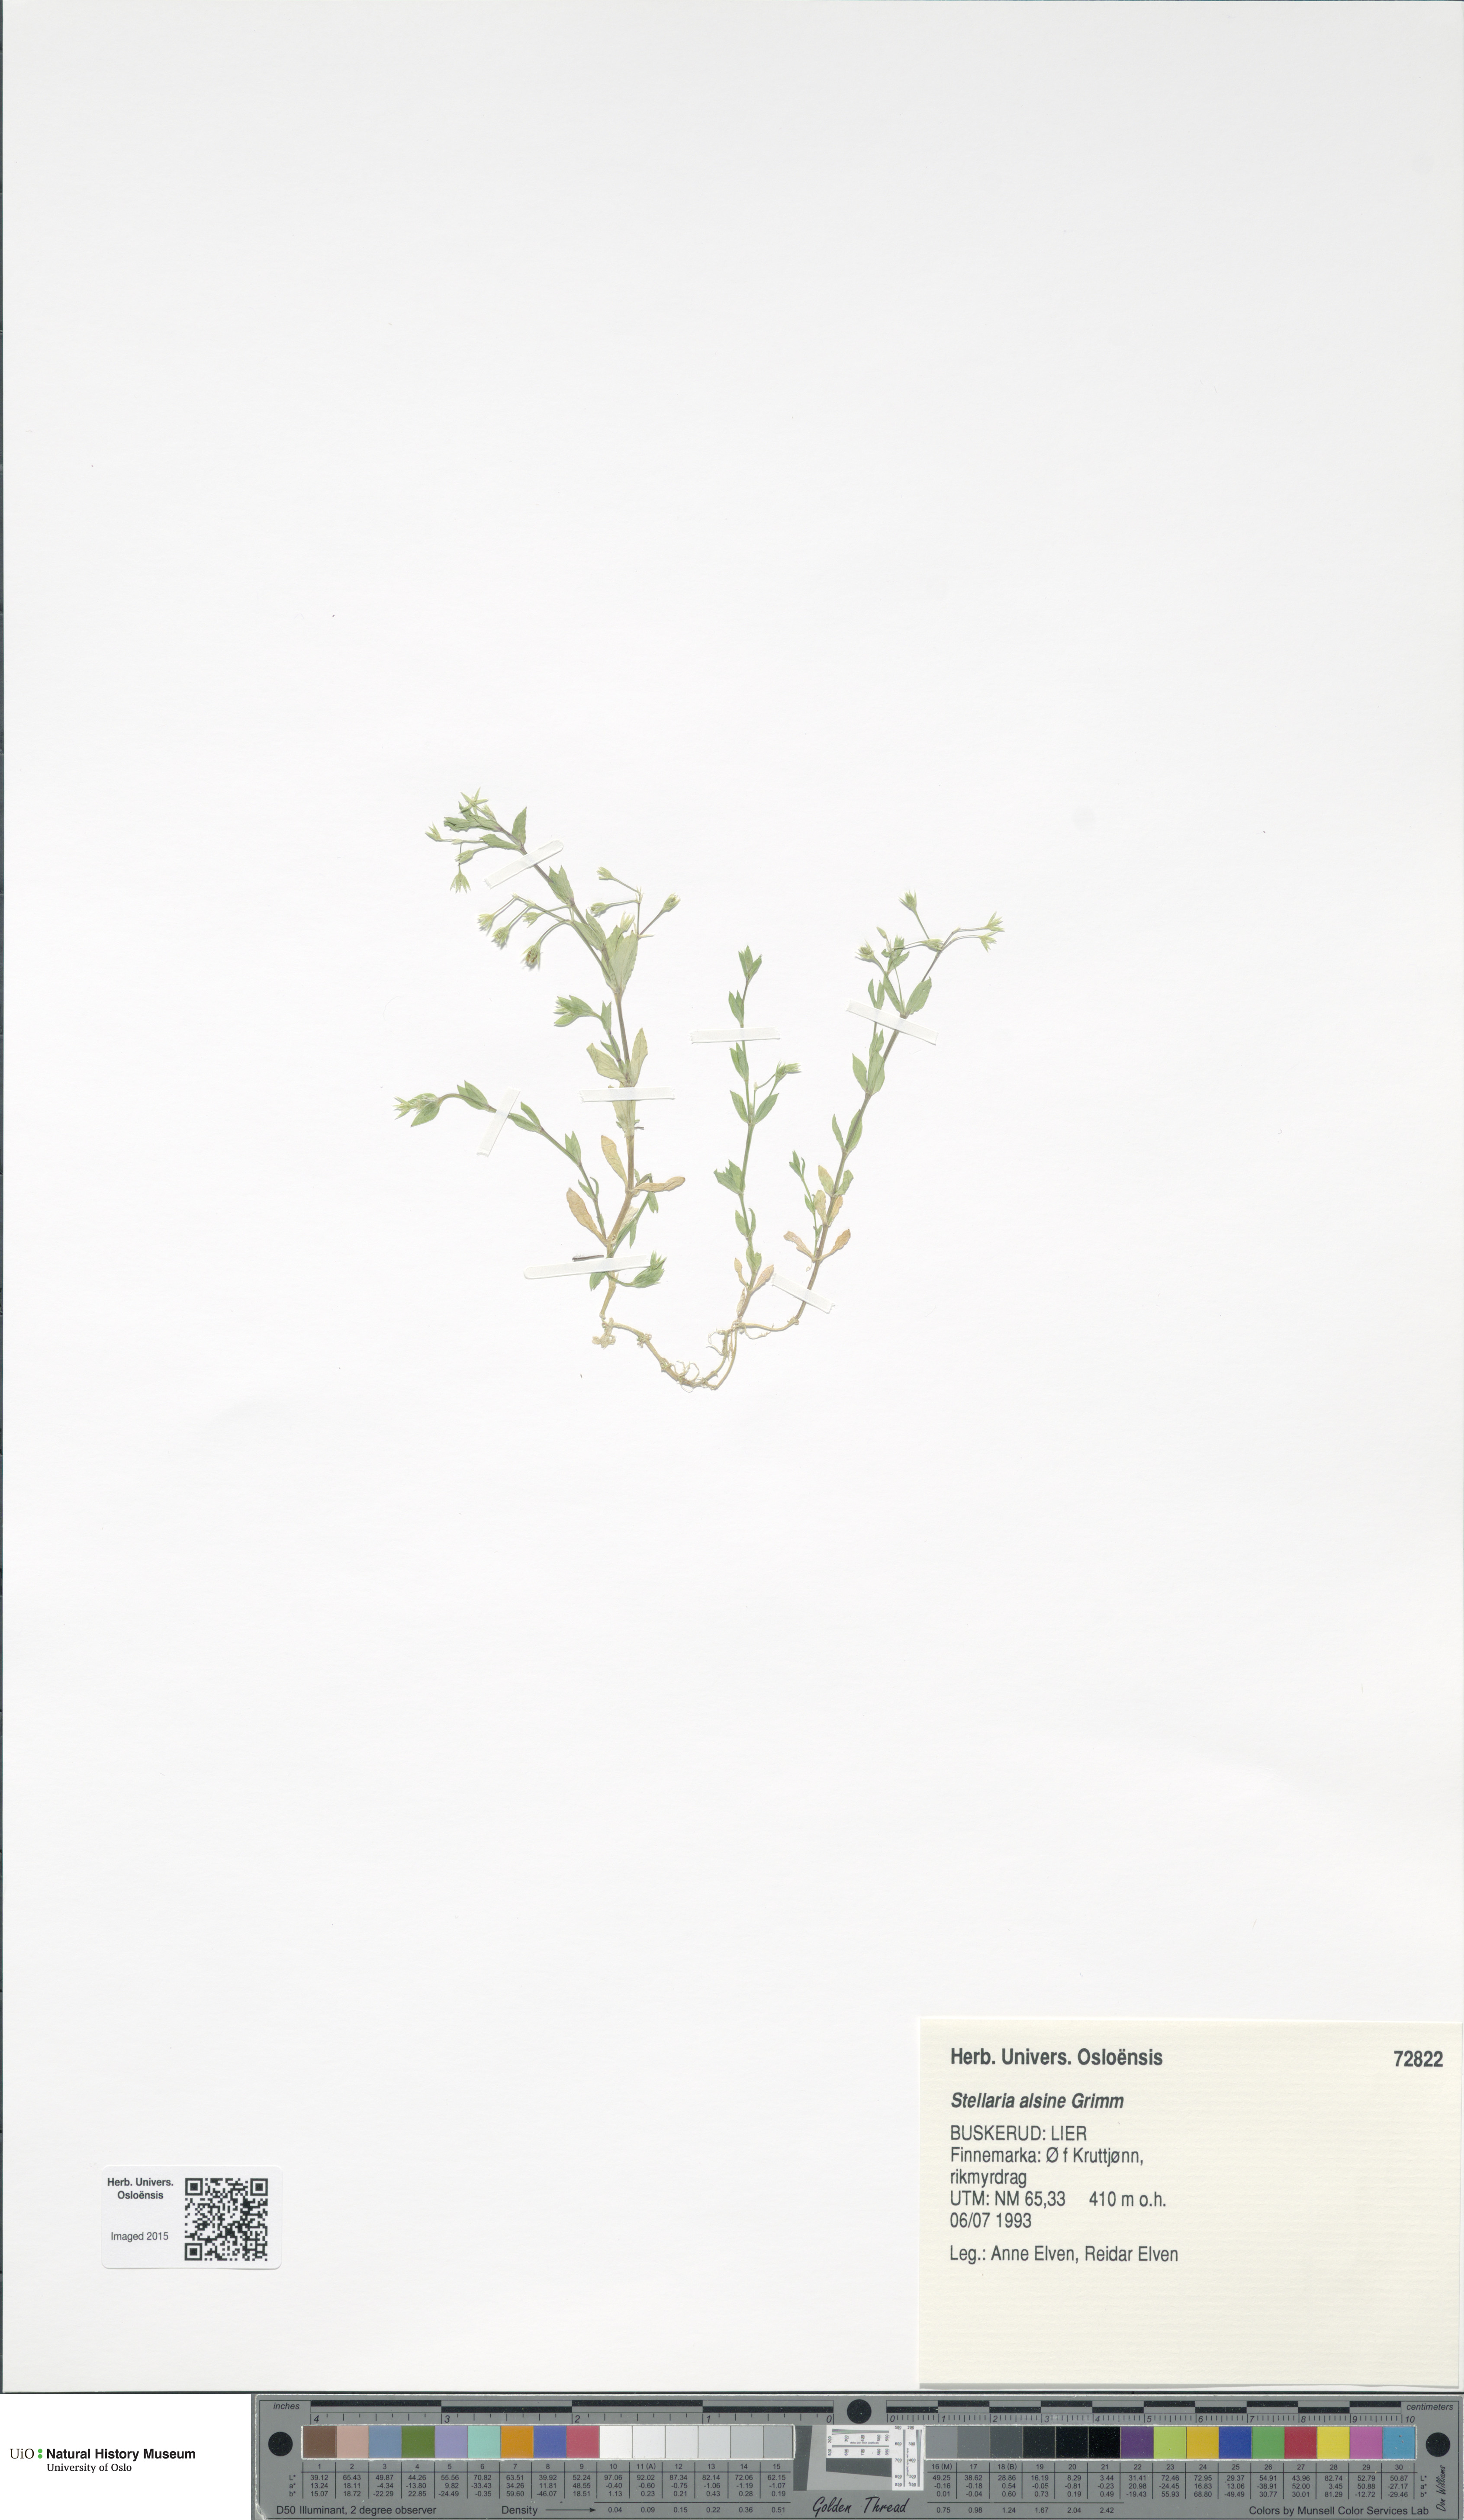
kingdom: Plantae
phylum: Tracheophyta
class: Magnoliopsida
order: Caryophyllales
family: Caryophyllaceae
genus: Stellaria
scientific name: Stellaria alsine
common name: Bog stitchwort
